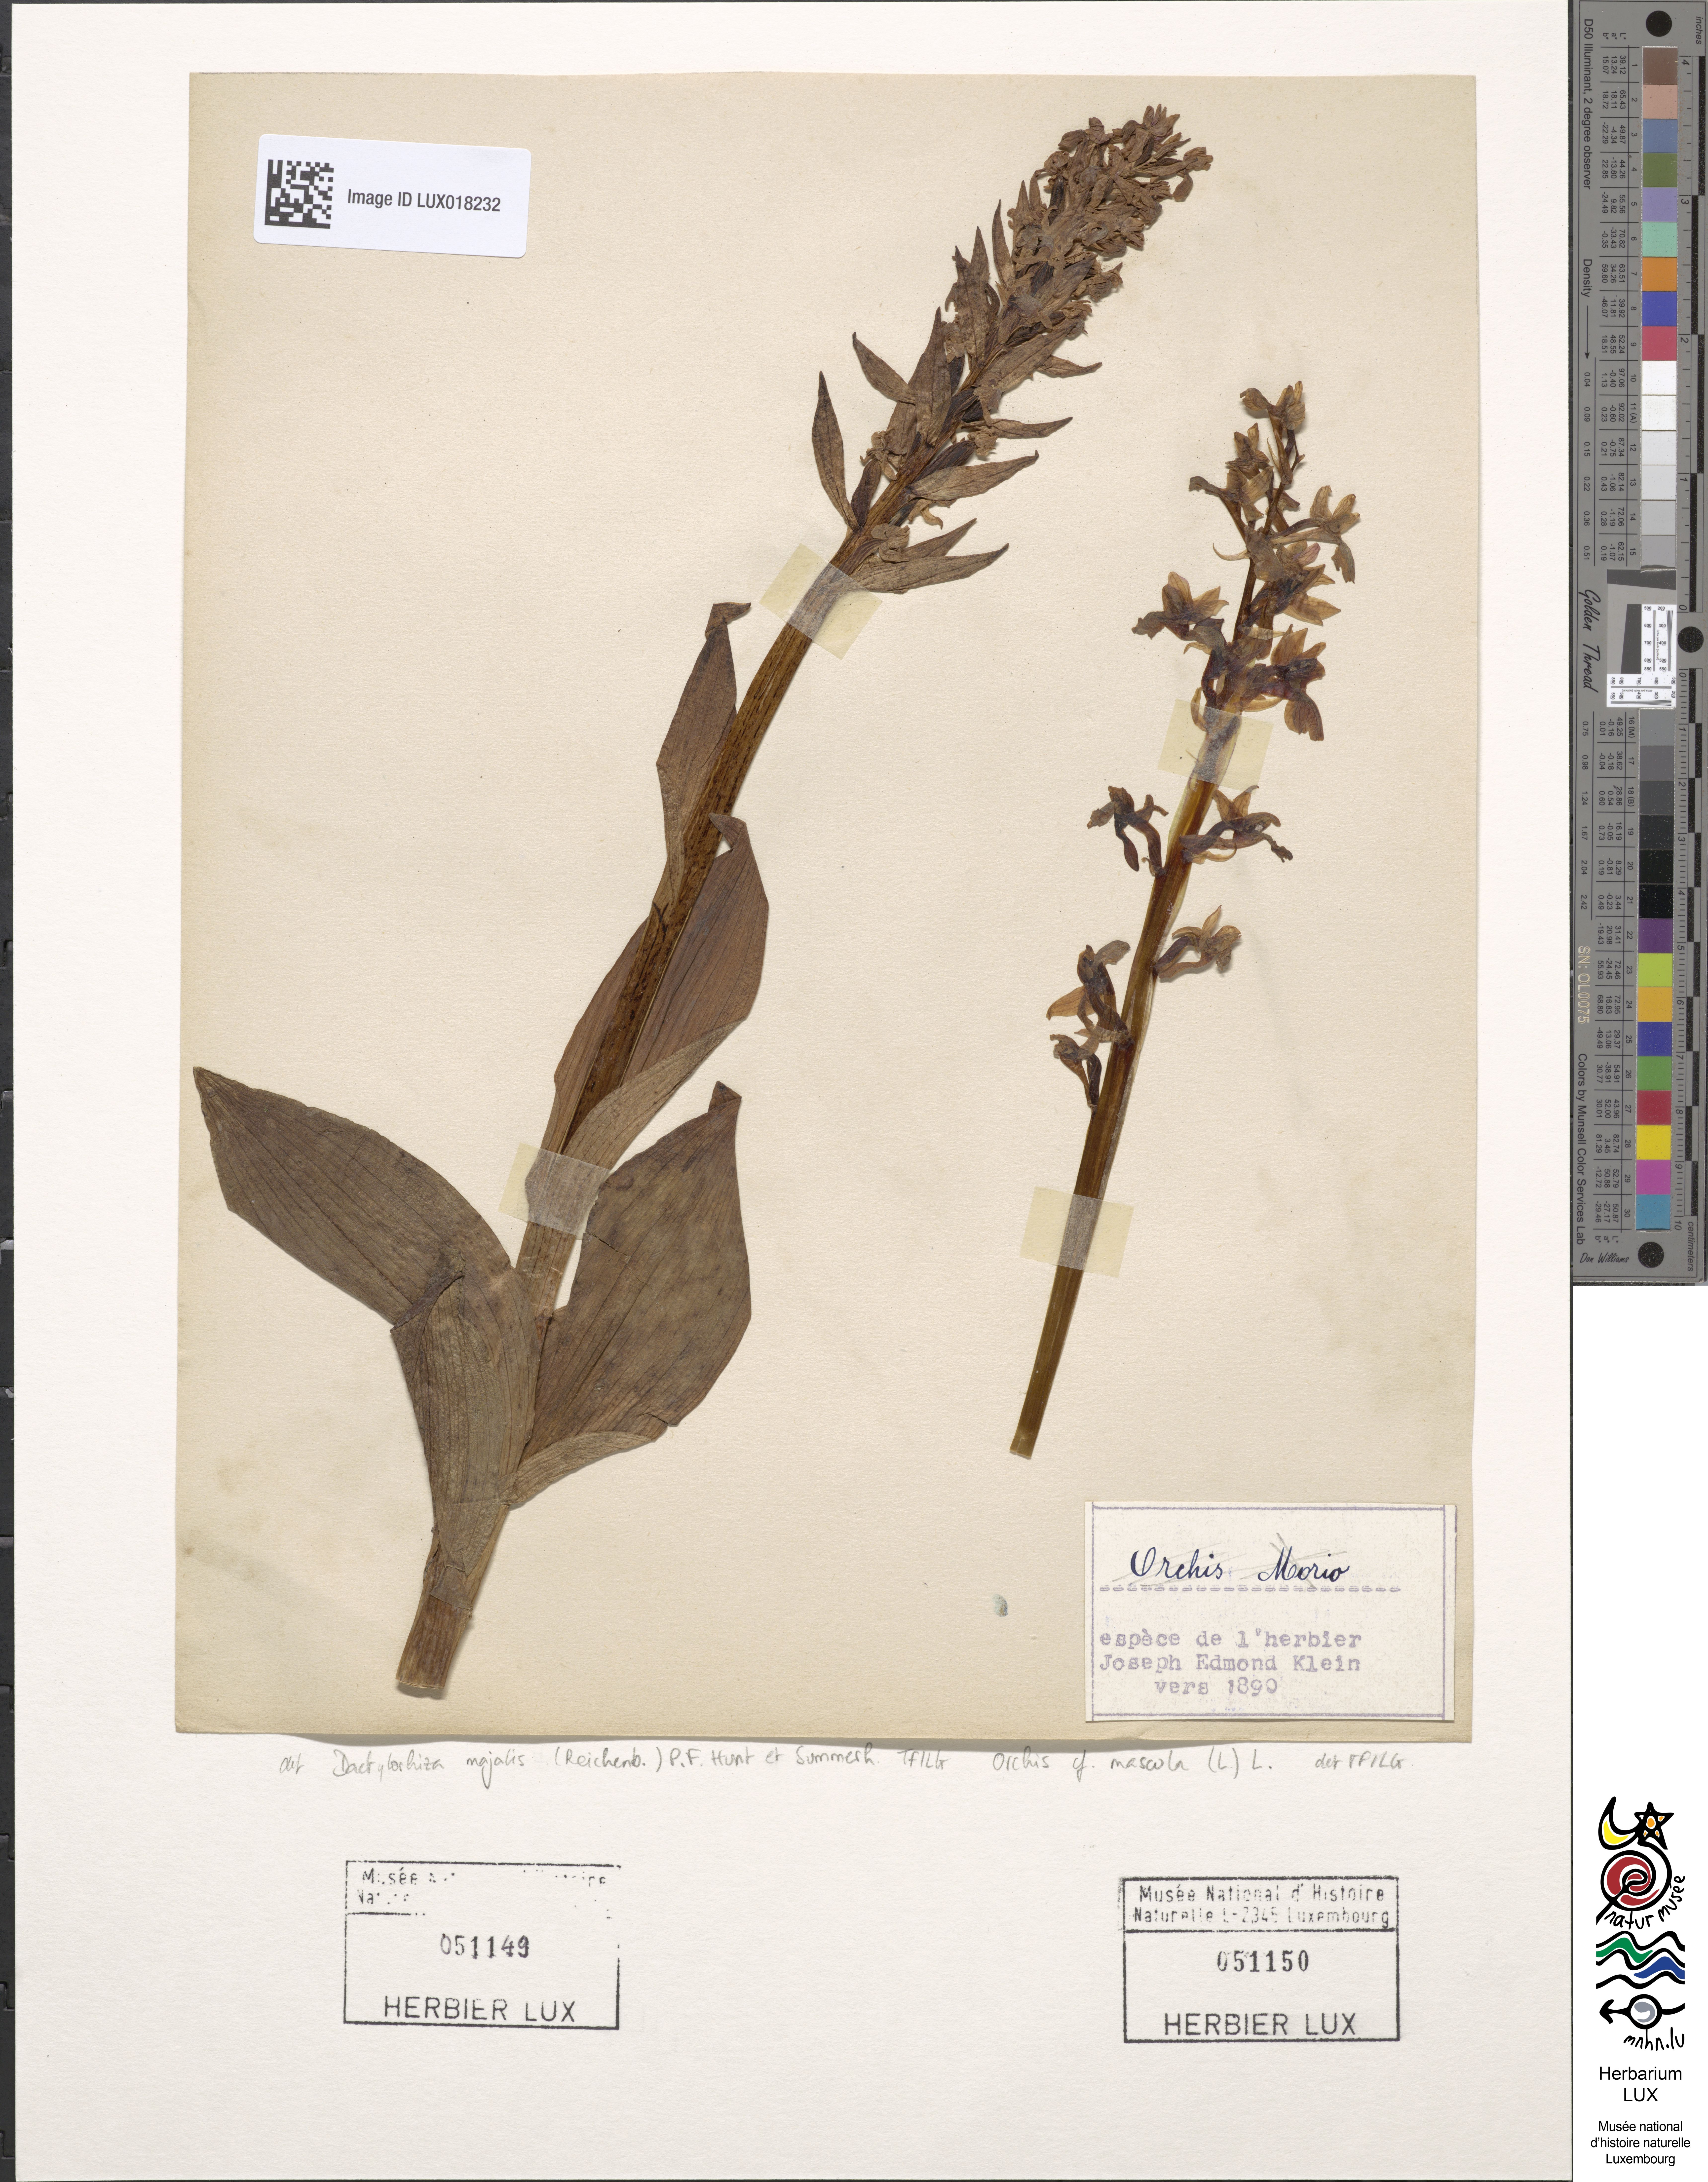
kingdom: Plantae
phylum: Tracheophyta
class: Liliopsida
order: Asparagales
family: Orchidaceae
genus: Orchis
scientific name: Orchis mascula
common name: Early-purple orchid
